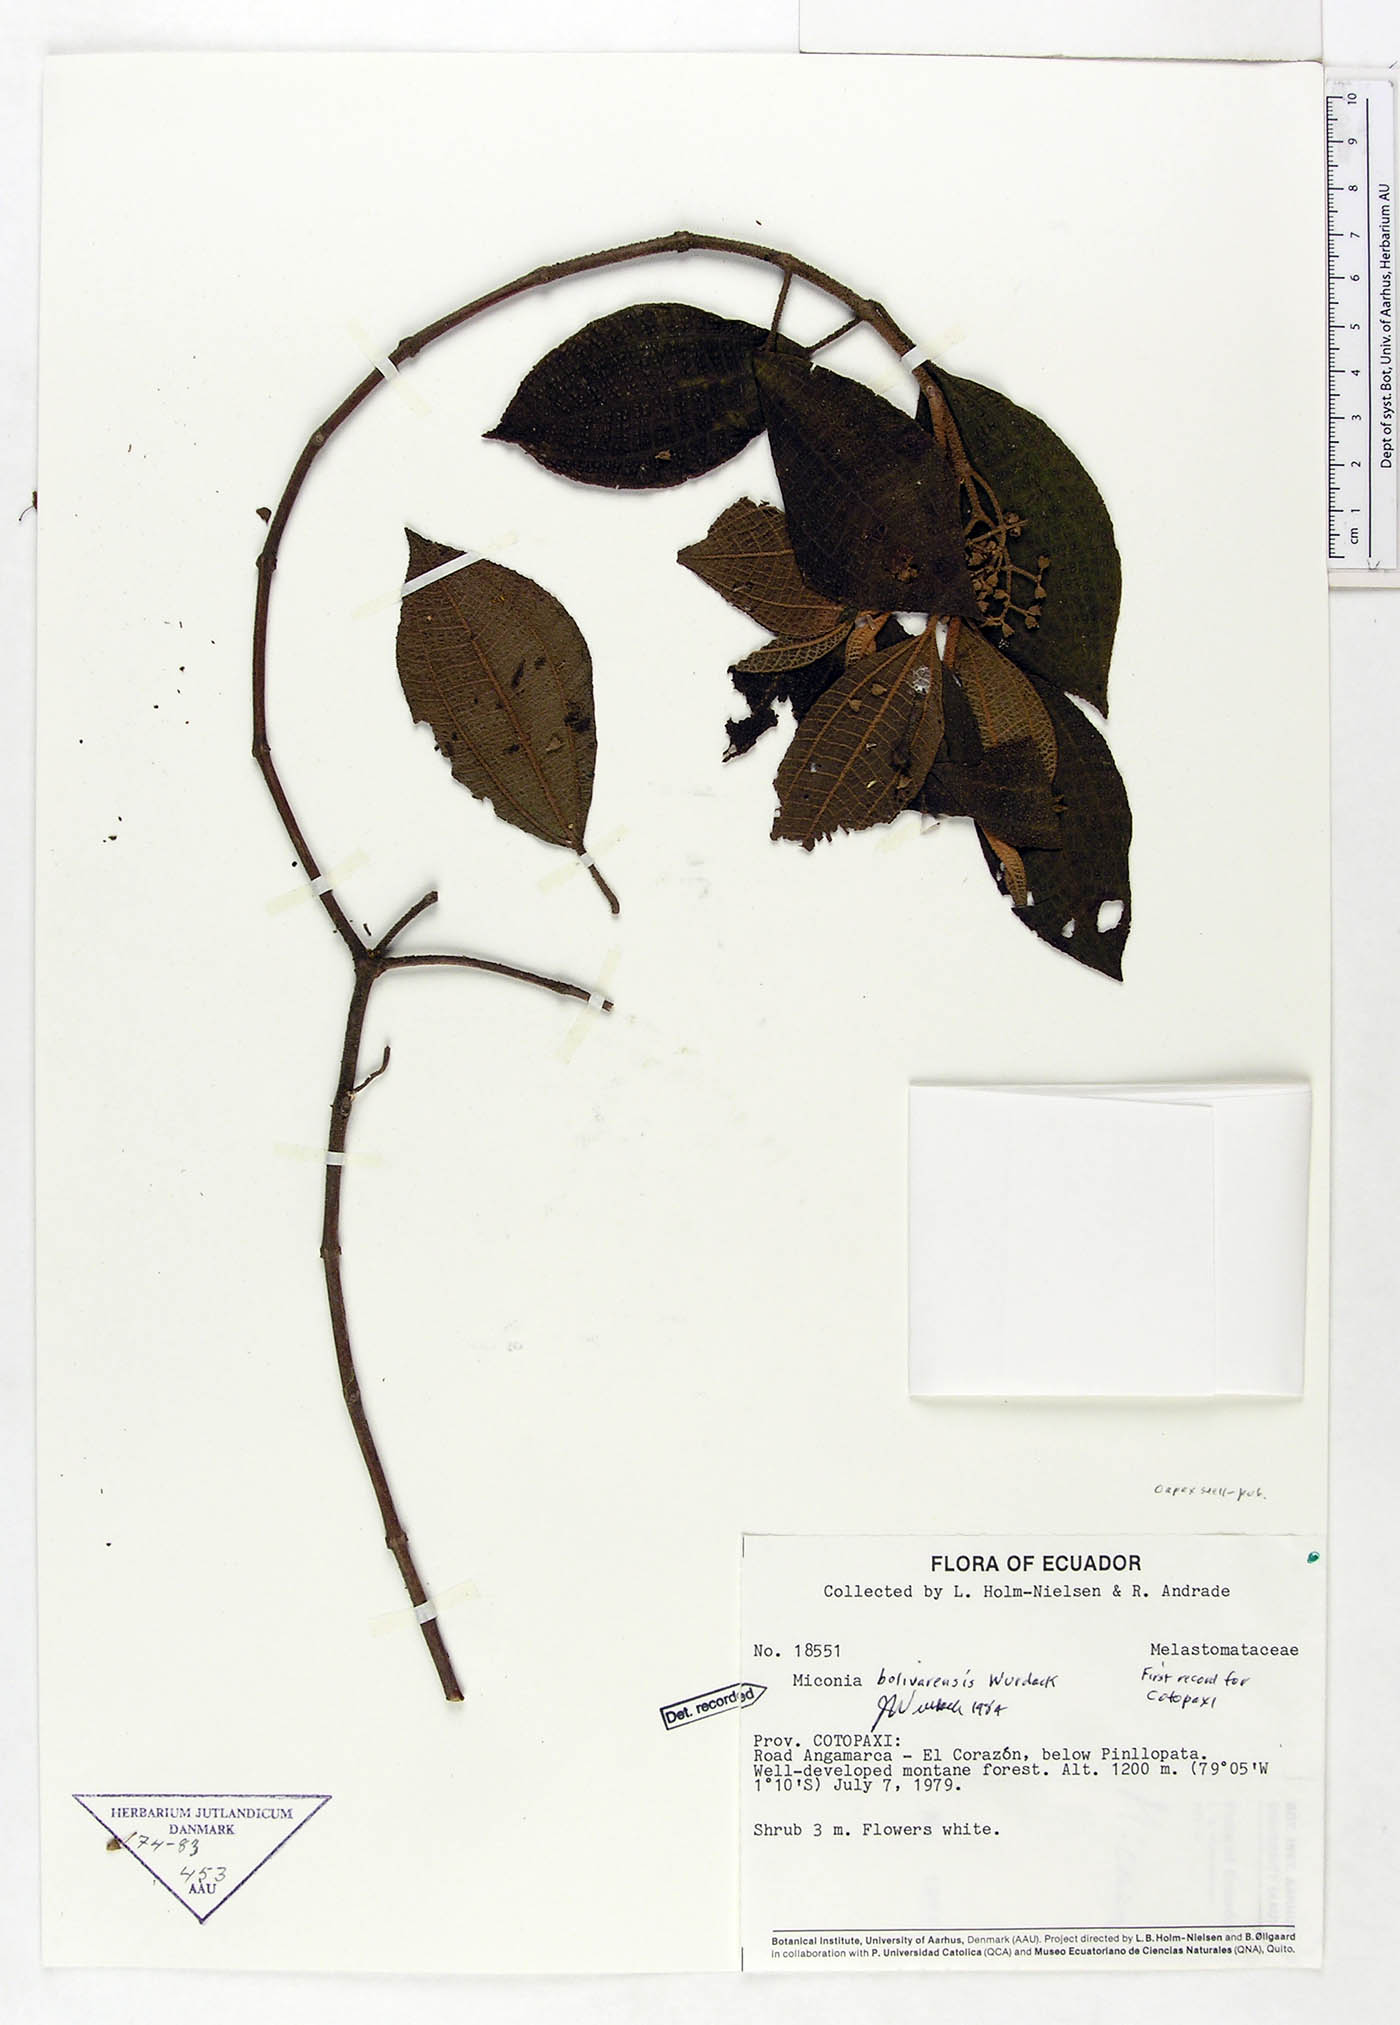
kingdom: Plantae
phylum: Tracheophyta
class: Magnoliopsida
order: Myrtales
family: Melastomataceae
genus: Miconia
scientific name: Miconia bolivarensis
